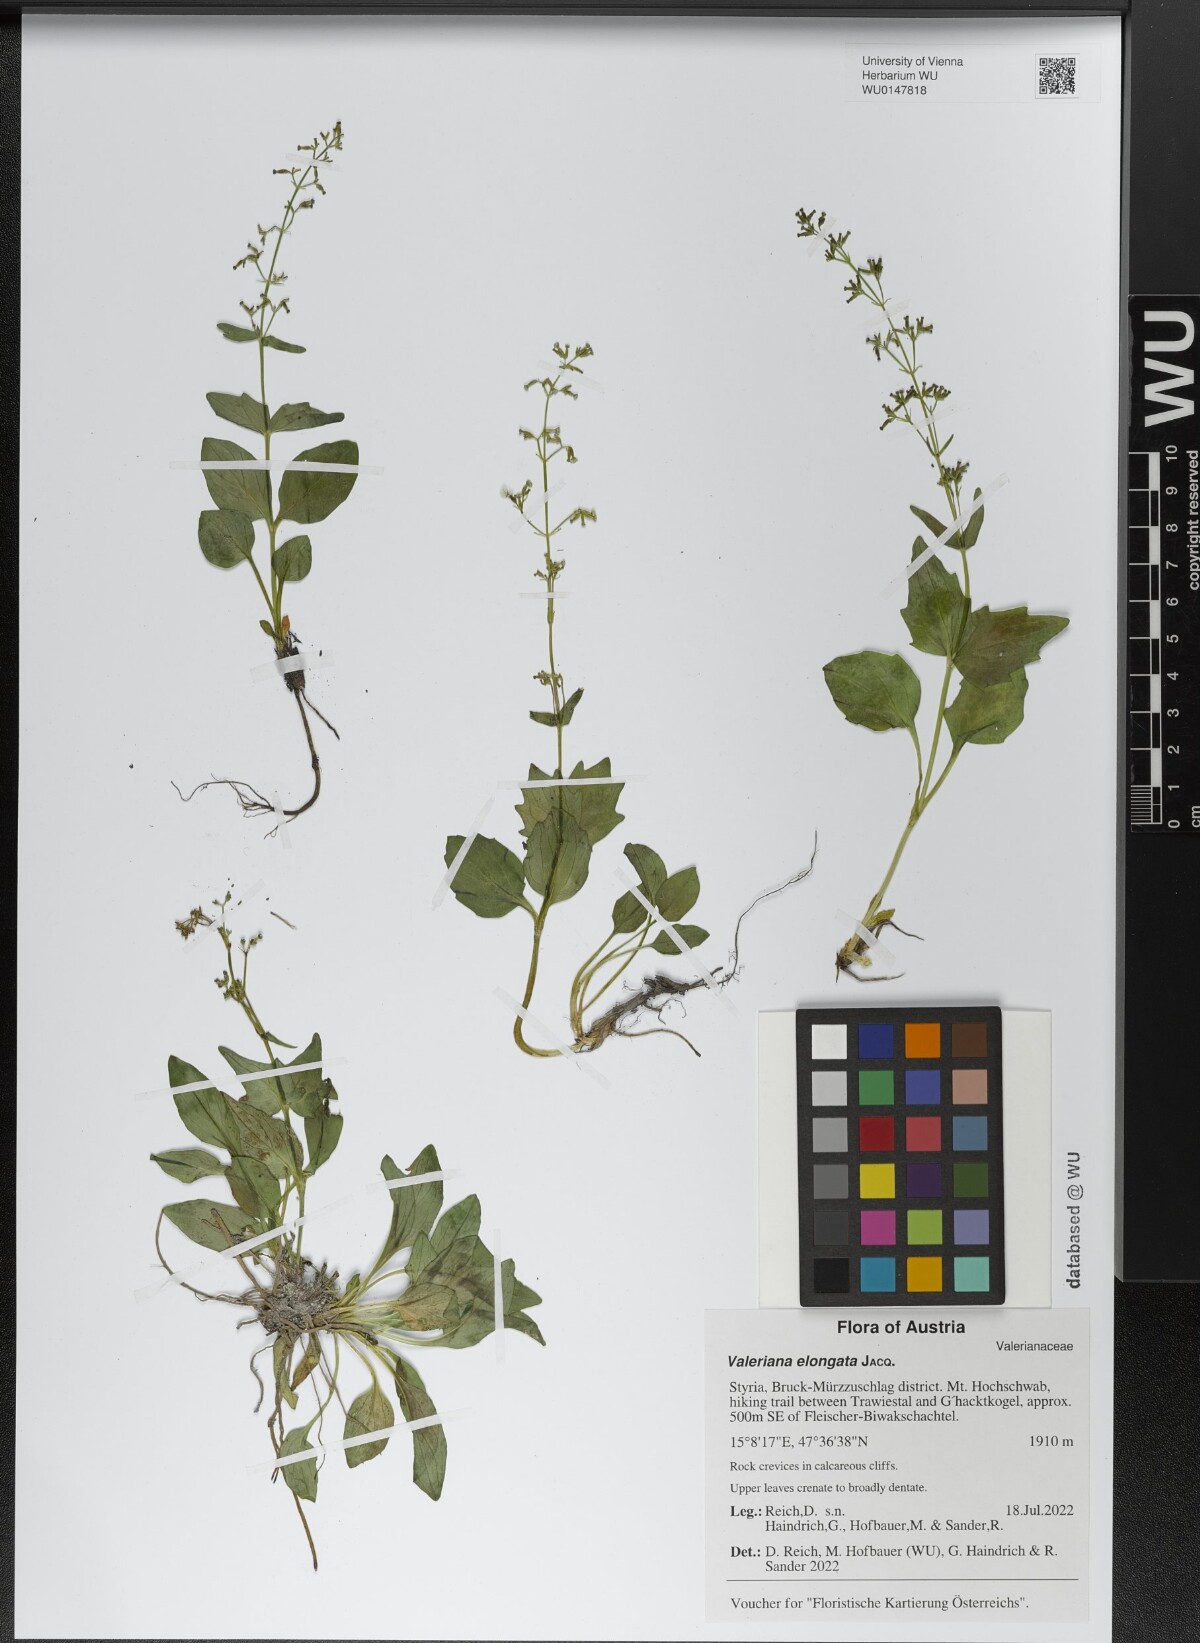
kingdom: Plantae
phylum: Tracheophyta
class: Magnoliopsida
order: Dipsacales
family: Caprifoliaceae
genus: Valeriana
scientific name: Valeriana elongata
